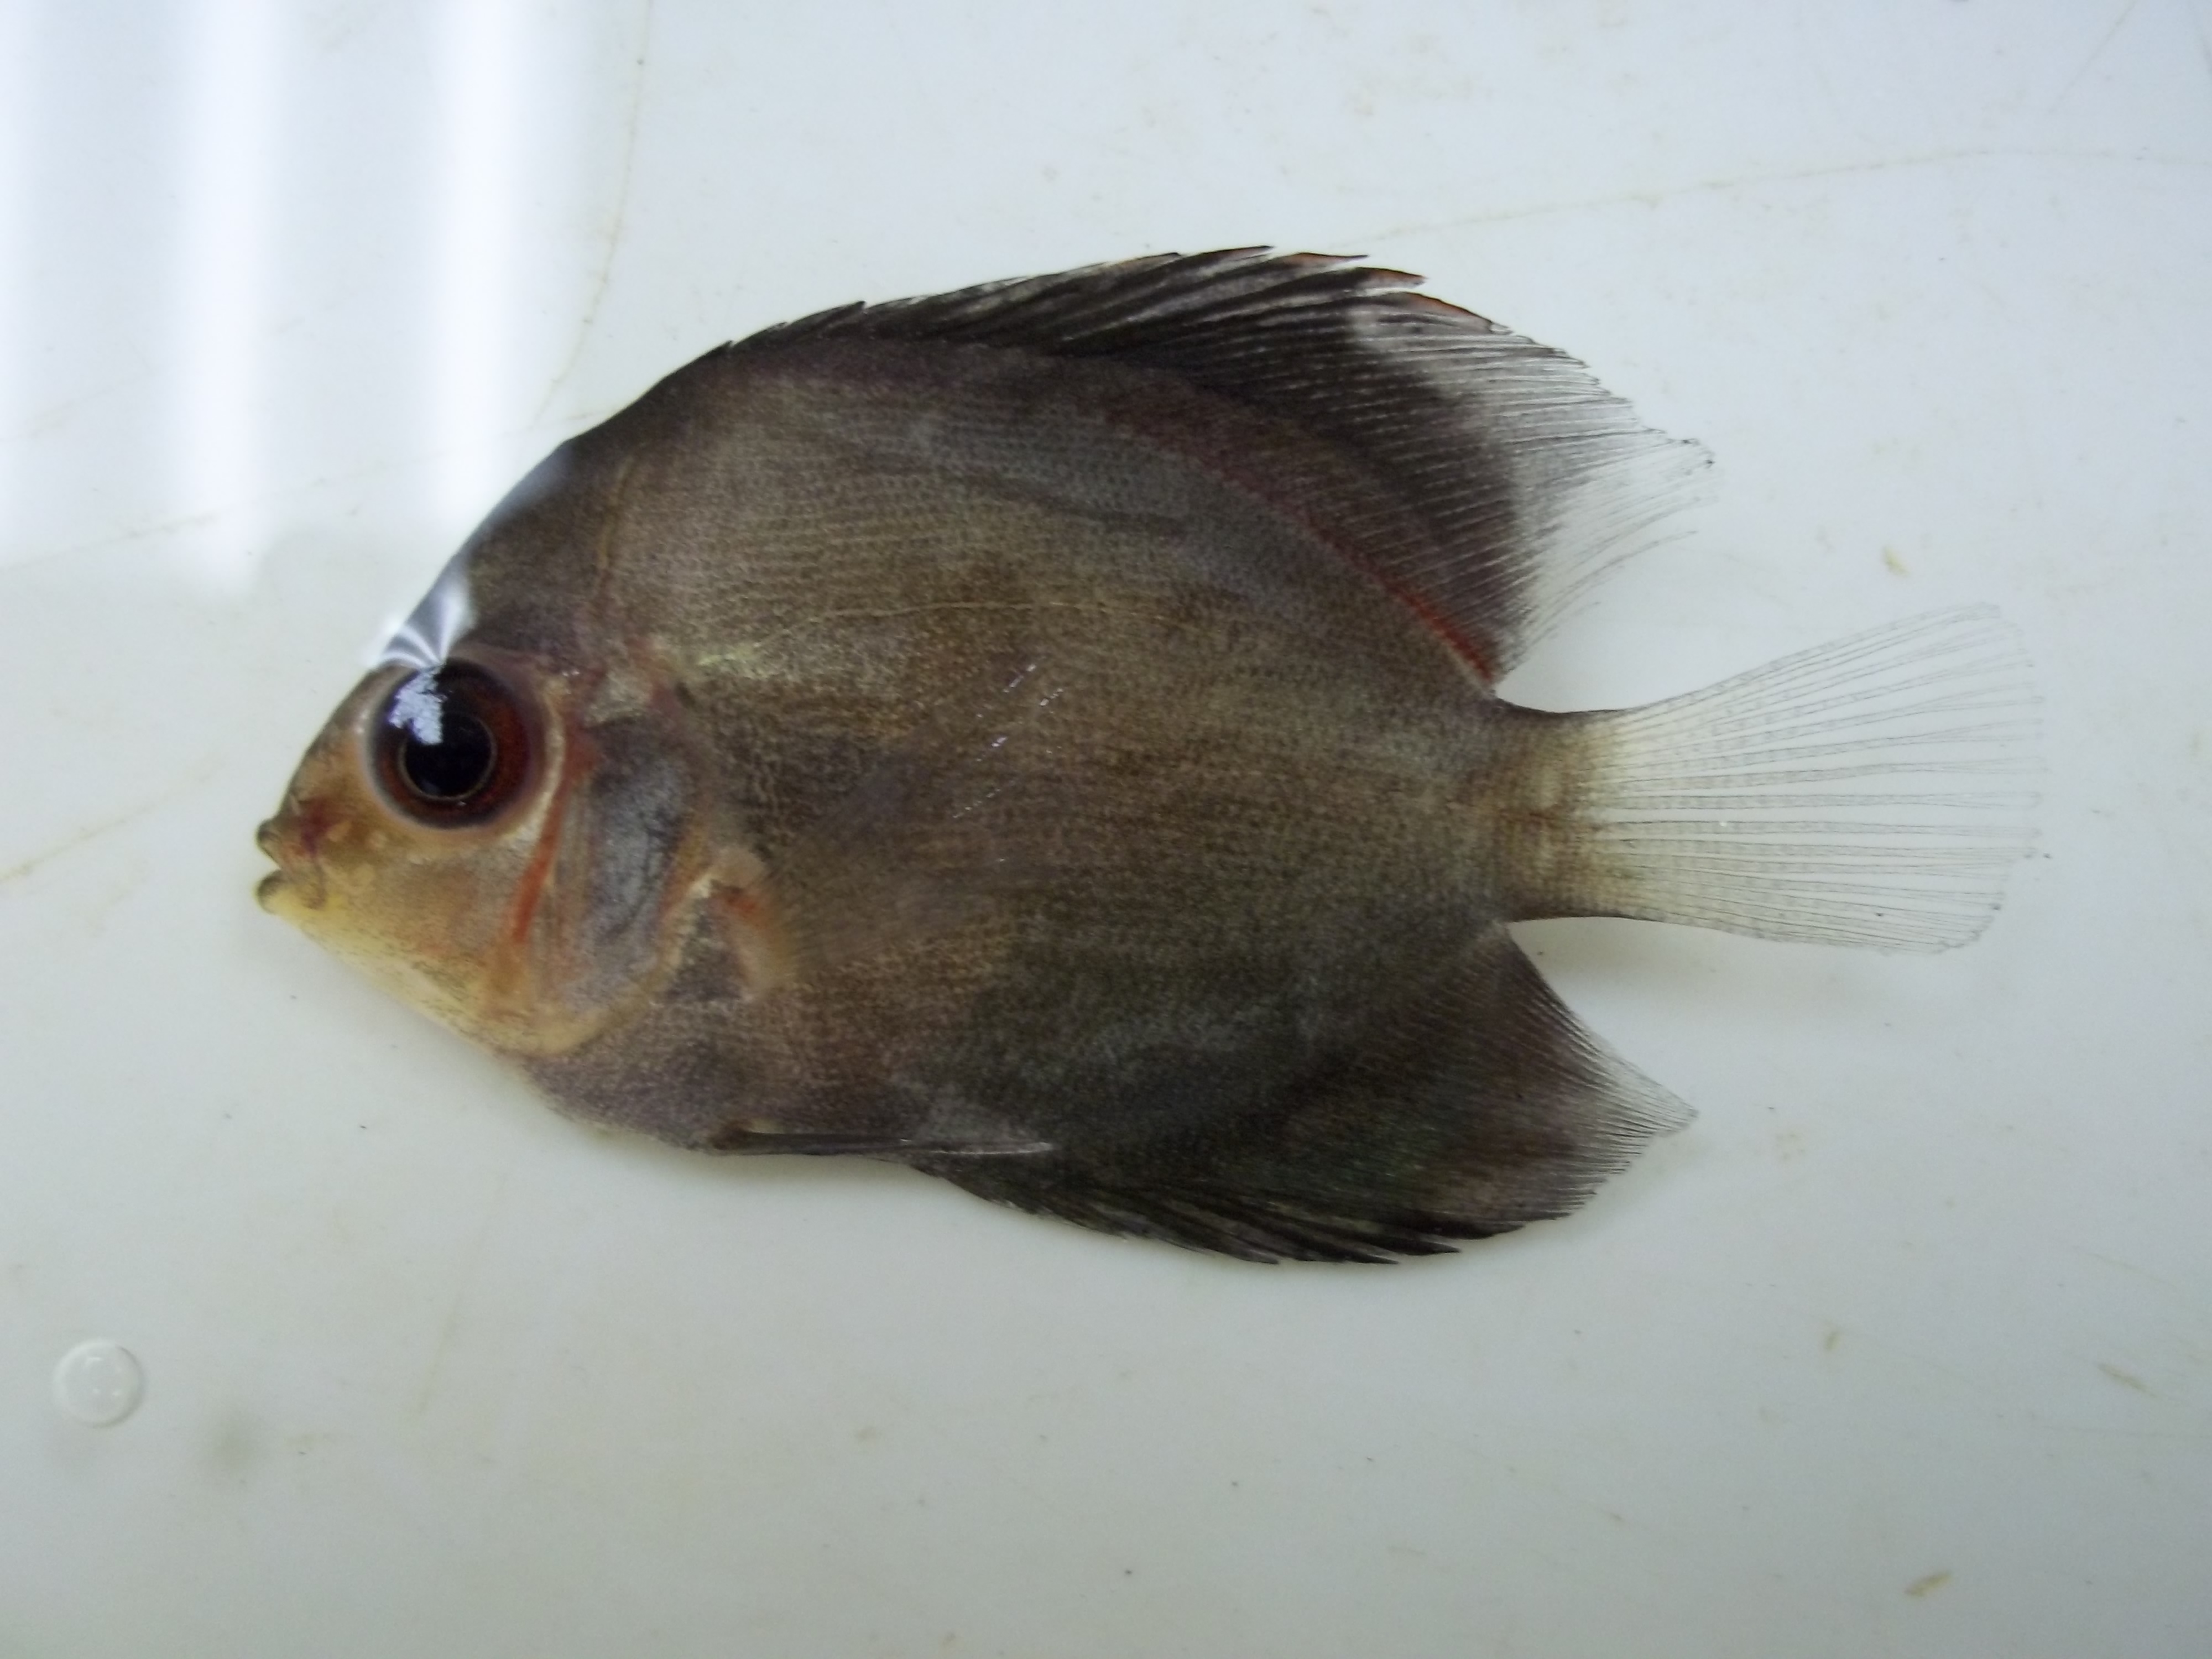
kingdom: Animalia
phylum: Chordata
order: Perciformes
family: Cichlidae
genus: Symphysodon
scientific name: Symphysodon
